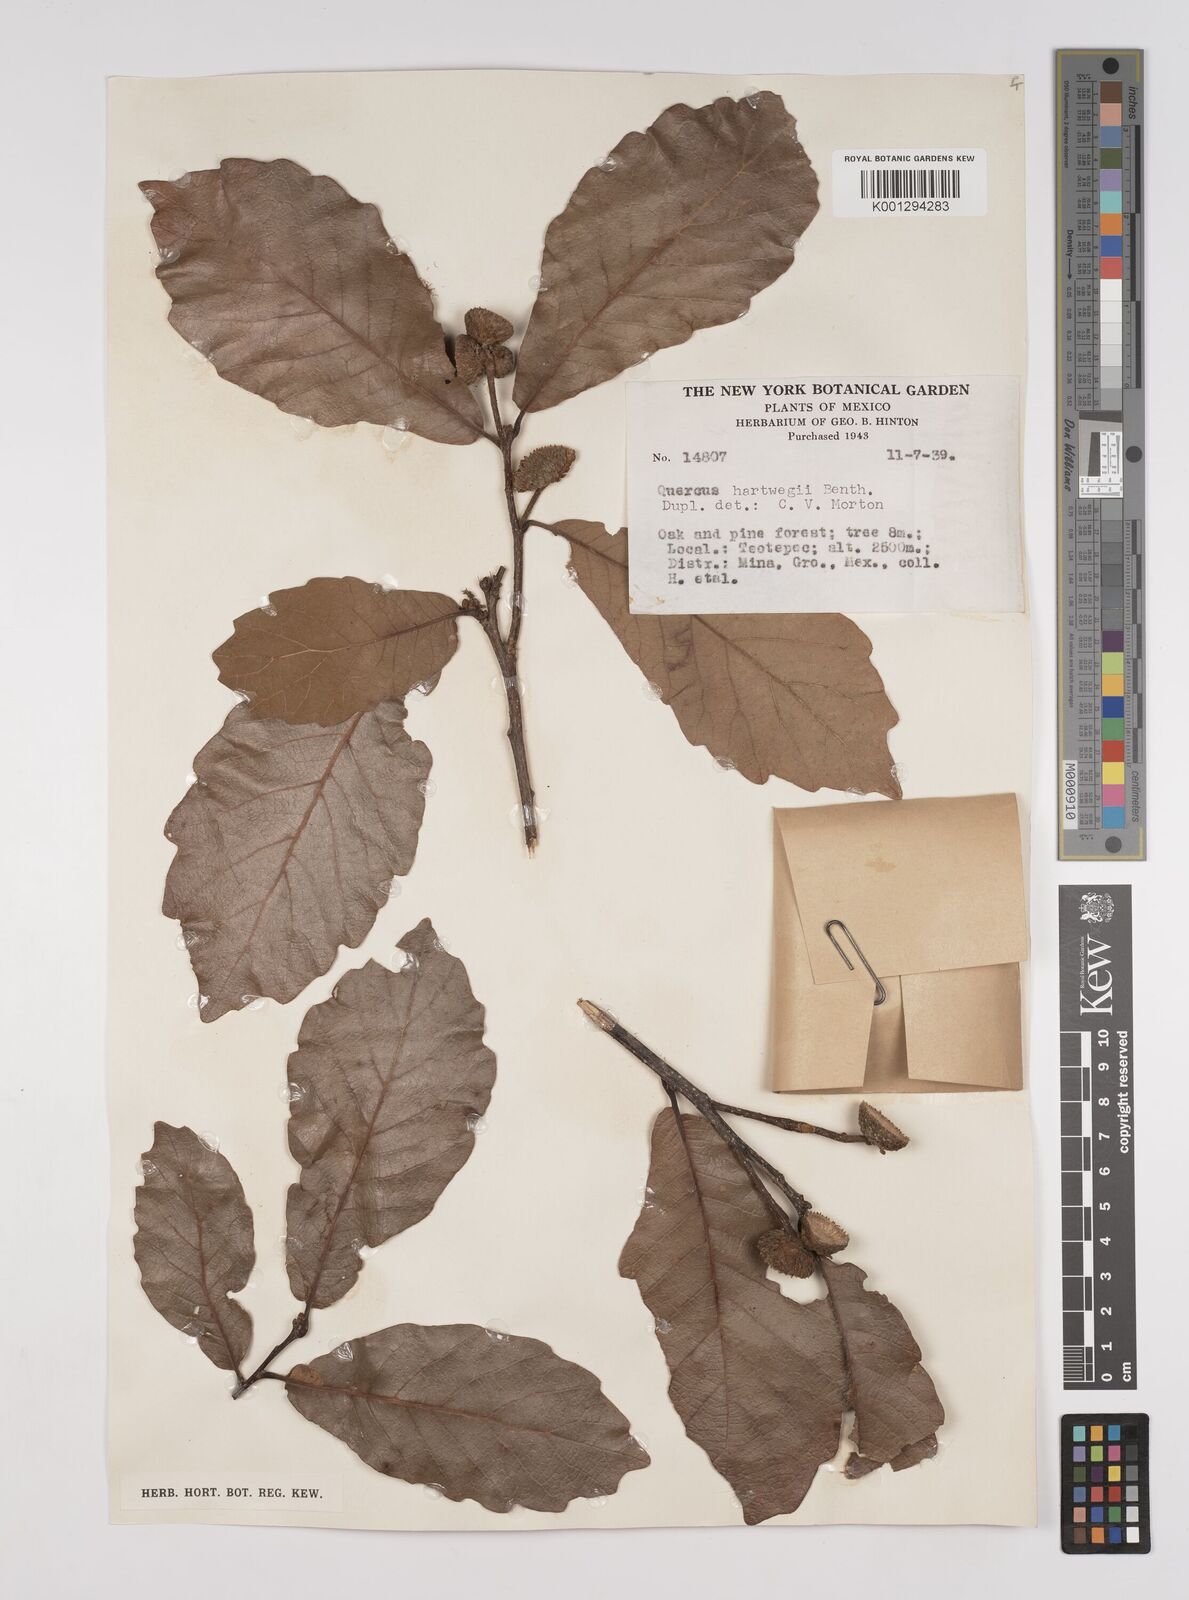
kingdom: Plantae
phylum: Tracheophyta
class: Magnoliopsida
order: Fagales
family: Fagaceae
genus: Quercus
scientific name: Quercus obtusata
